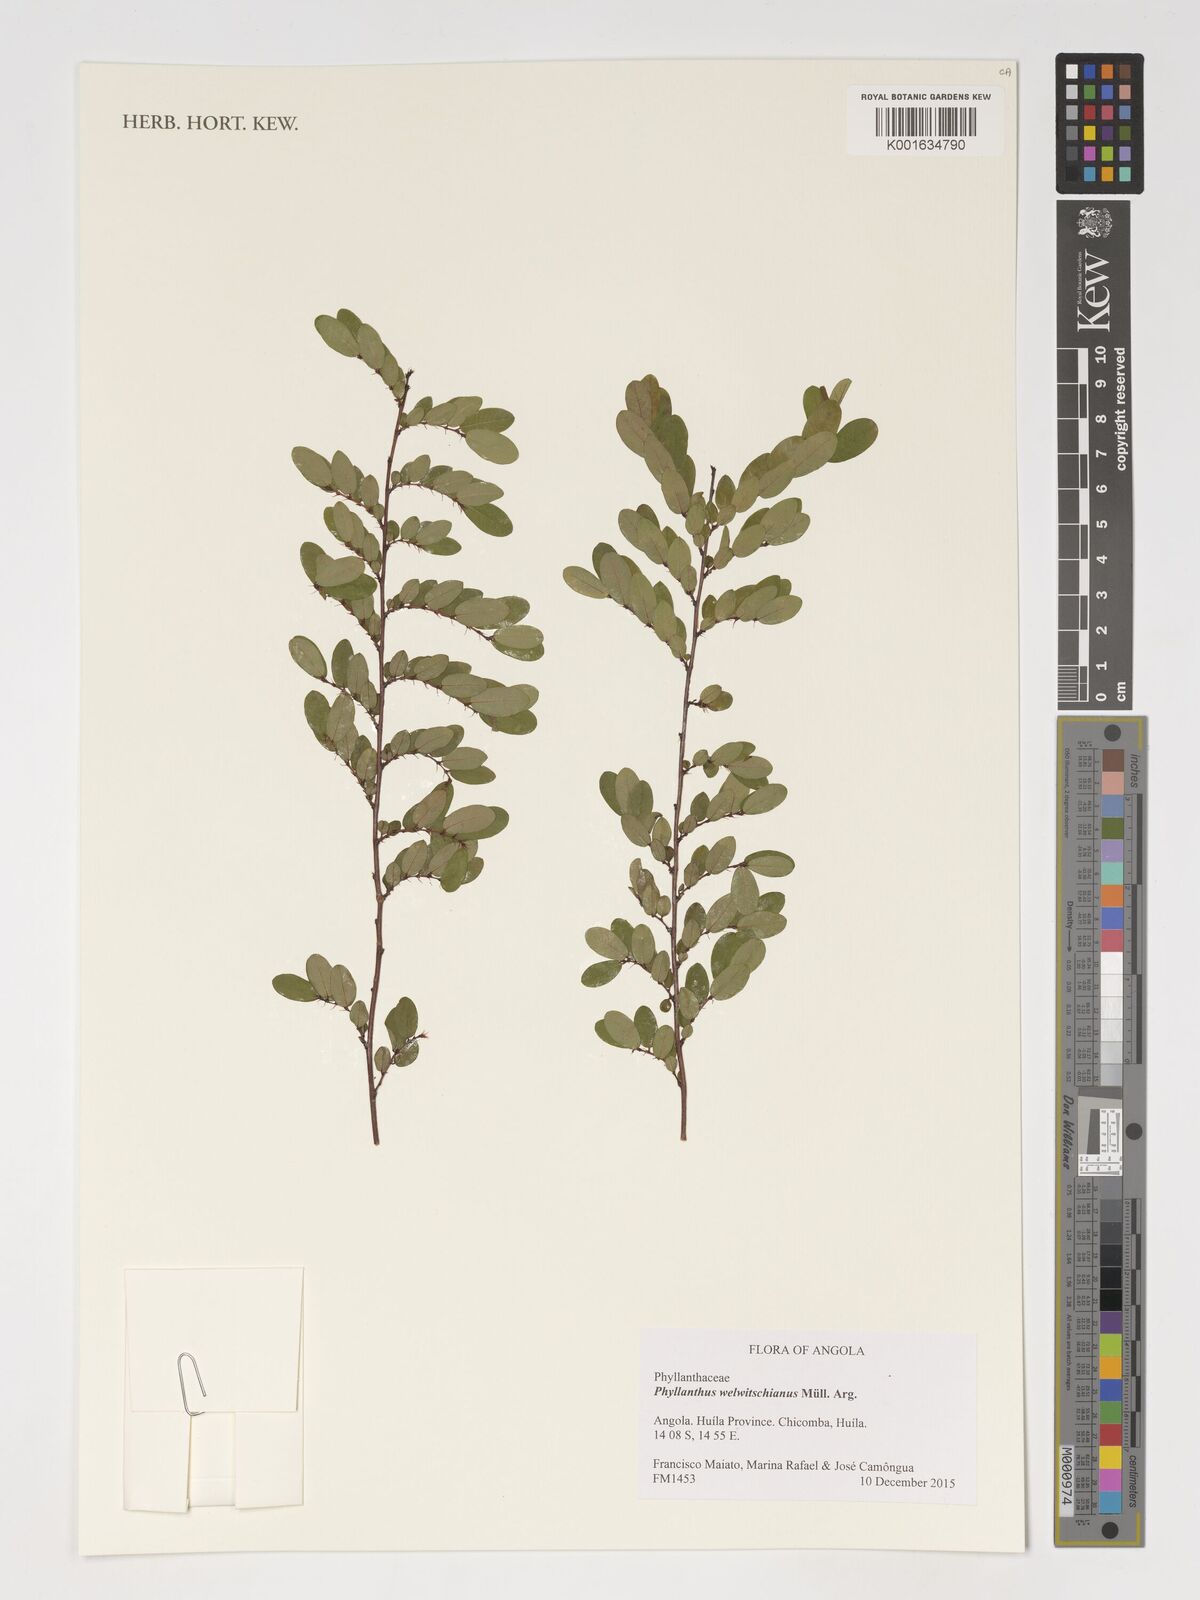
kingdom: Plantae
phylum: Tracheophyta
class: Magnoliopsida
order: Malpighiales
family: Phyllanthaceae
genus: Phyllanthus
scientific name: Phyllanthus welwitschianus
